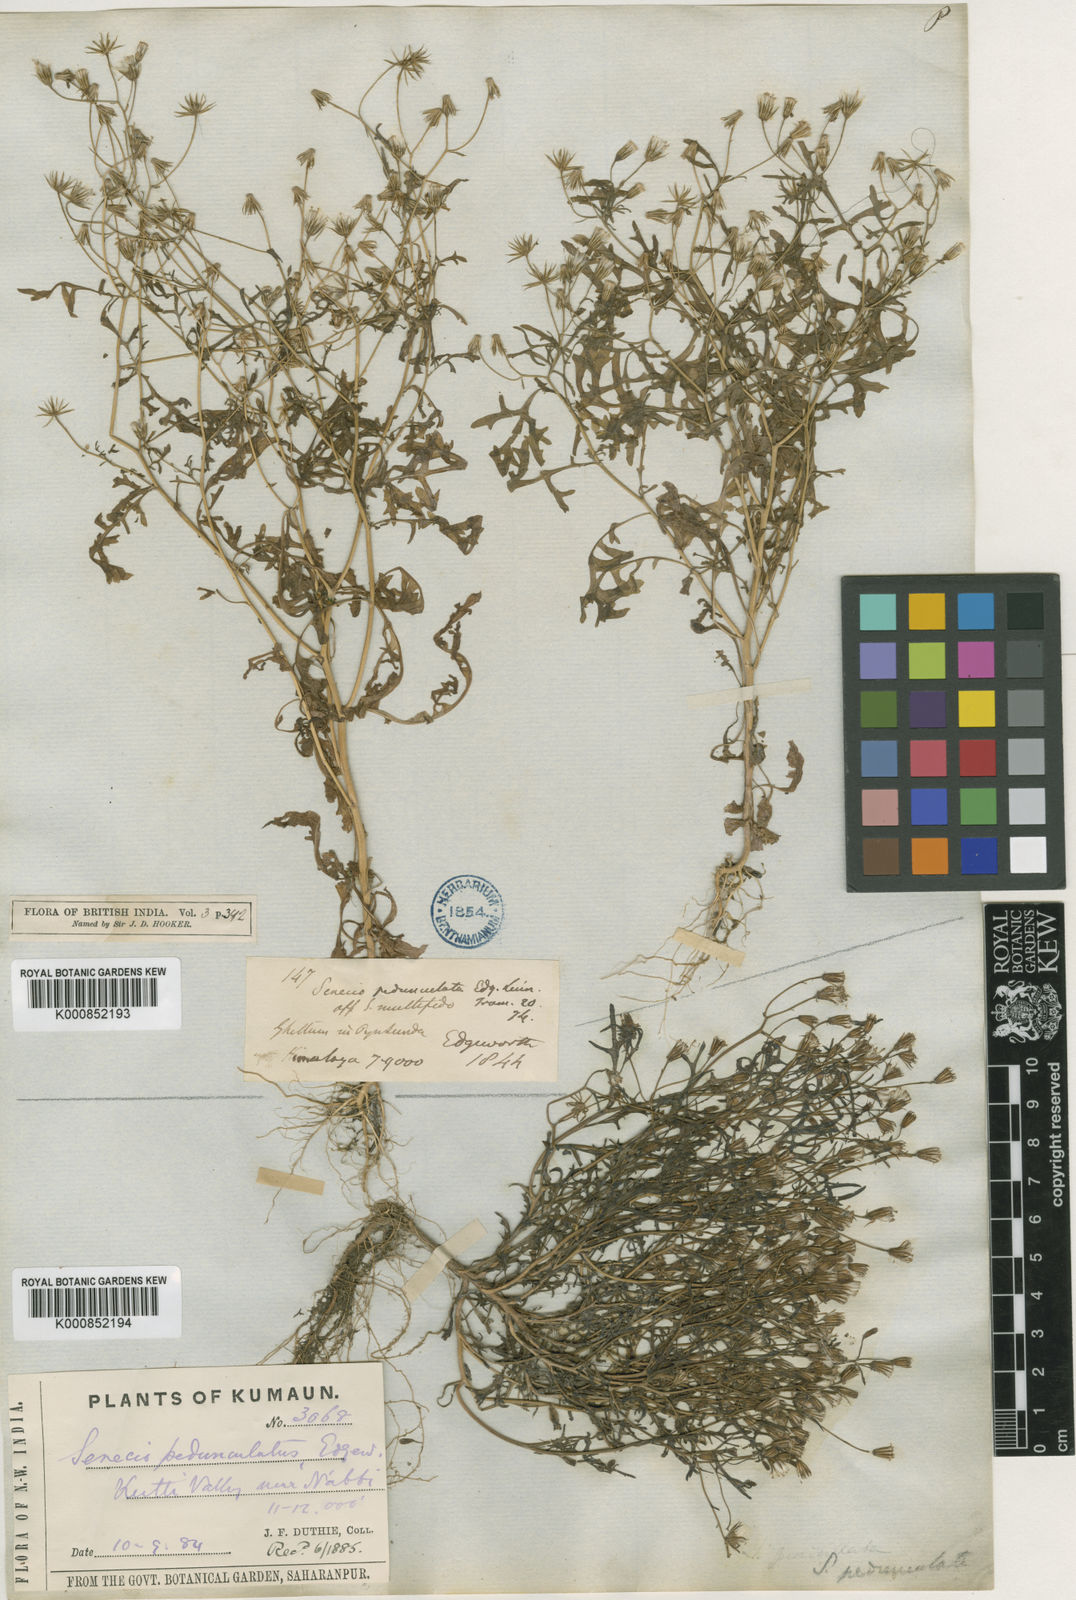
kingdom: Plantae
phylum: Tracheophyta
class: Magnoliopsida
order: Asterales
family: Asteraceae
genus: Senecio
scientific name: Senecio krascheninnikovii
